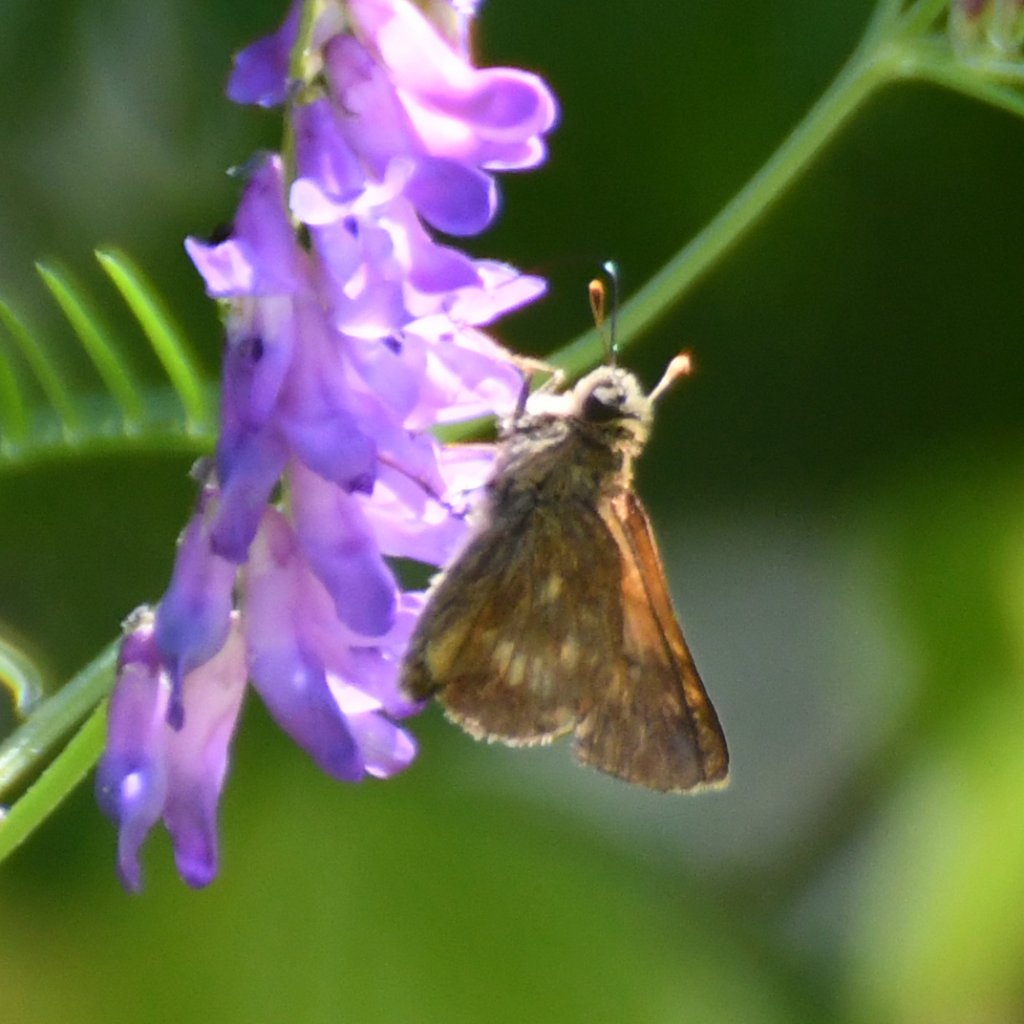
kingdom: Animalia
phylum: Arthropoda
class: Insecta
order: Lepidoptera
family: Hesperiidae
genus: Polites
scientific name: Polites
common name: Long Dash Skipper
